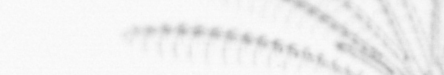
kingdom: Animalia
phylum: Arthropoda
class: Maxillopoda
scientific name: Maxillopoda
